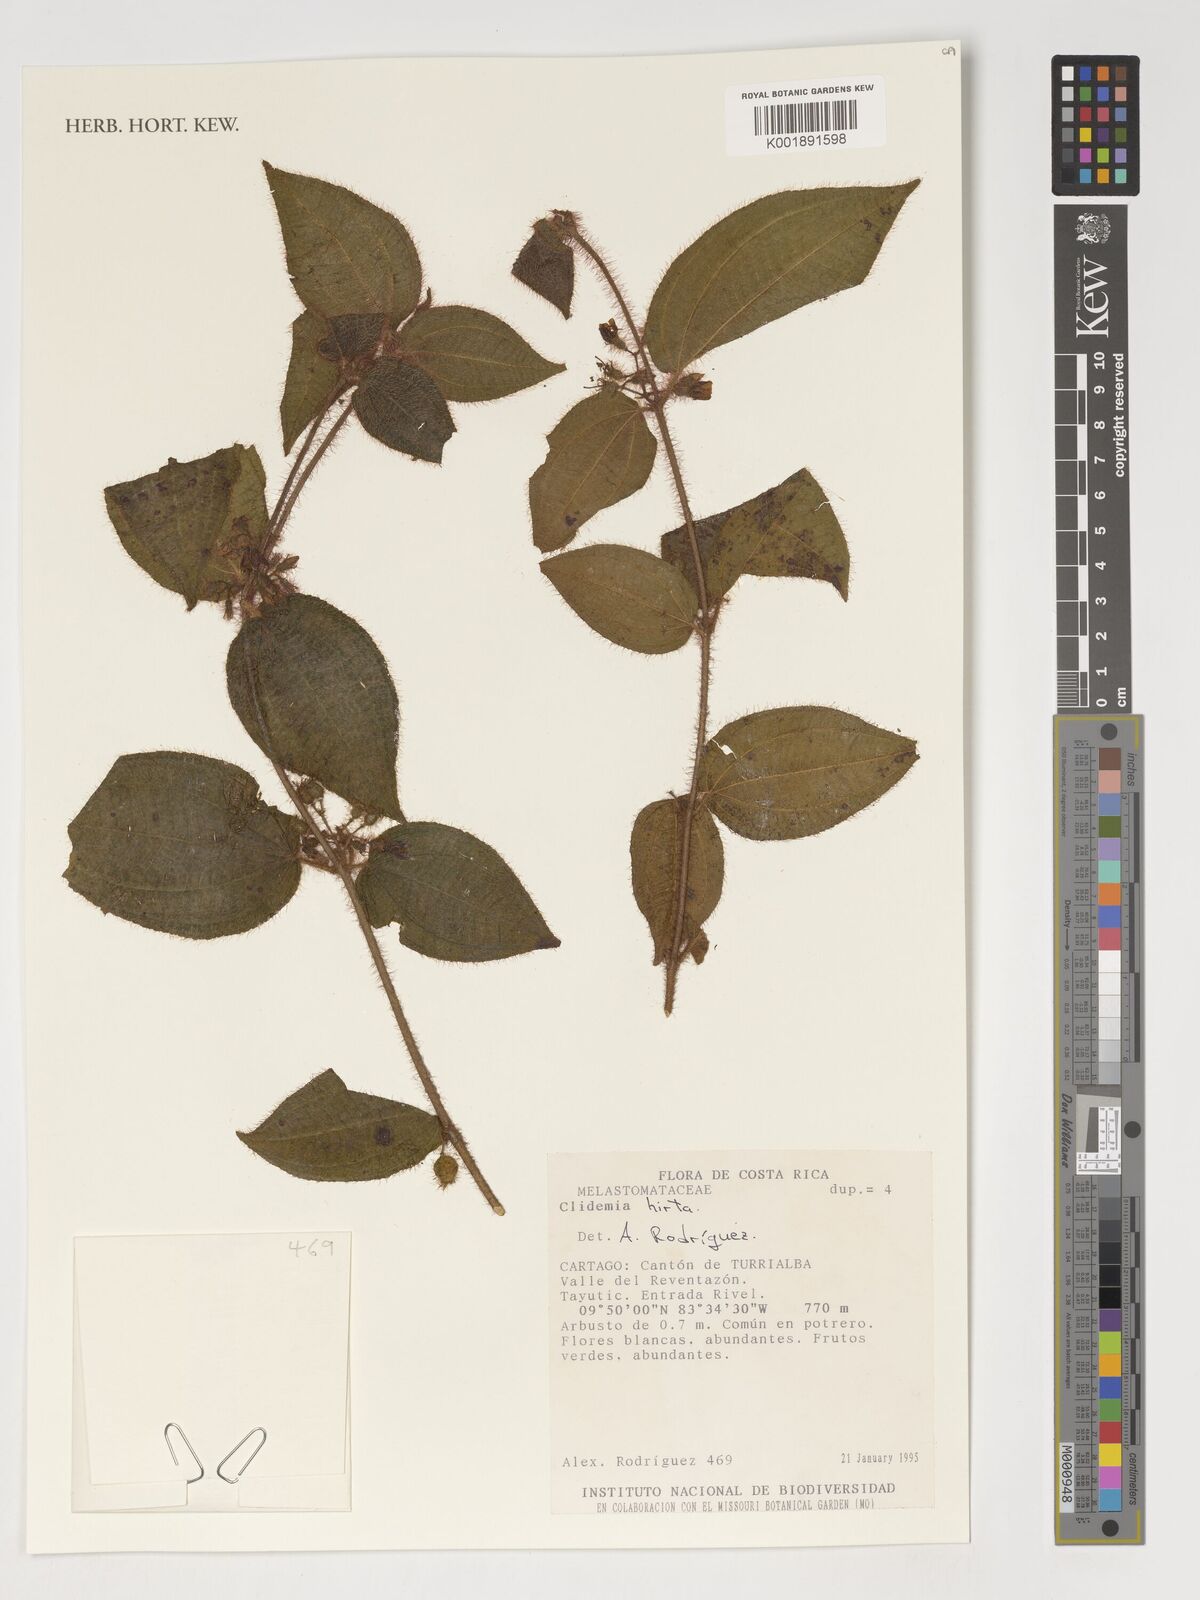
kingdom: Plantae
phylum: Tracheophyta
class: Magnoliopsida
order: Myrtales
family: Melastomataceae
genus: Miconia
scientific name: Miconia crenata
